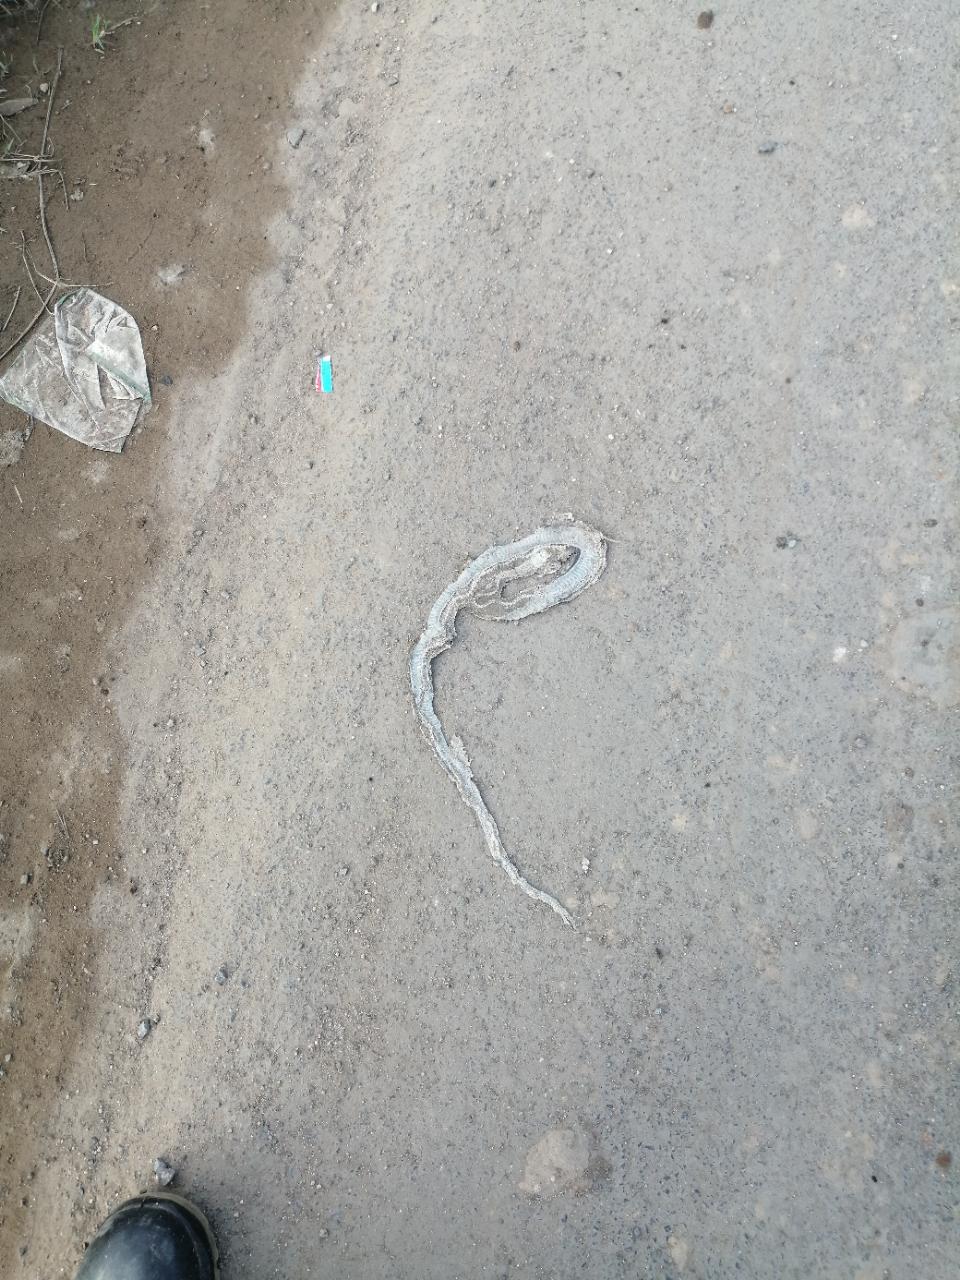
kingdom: Animalia
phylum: Chordata
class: Squamata
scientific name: Squamata
